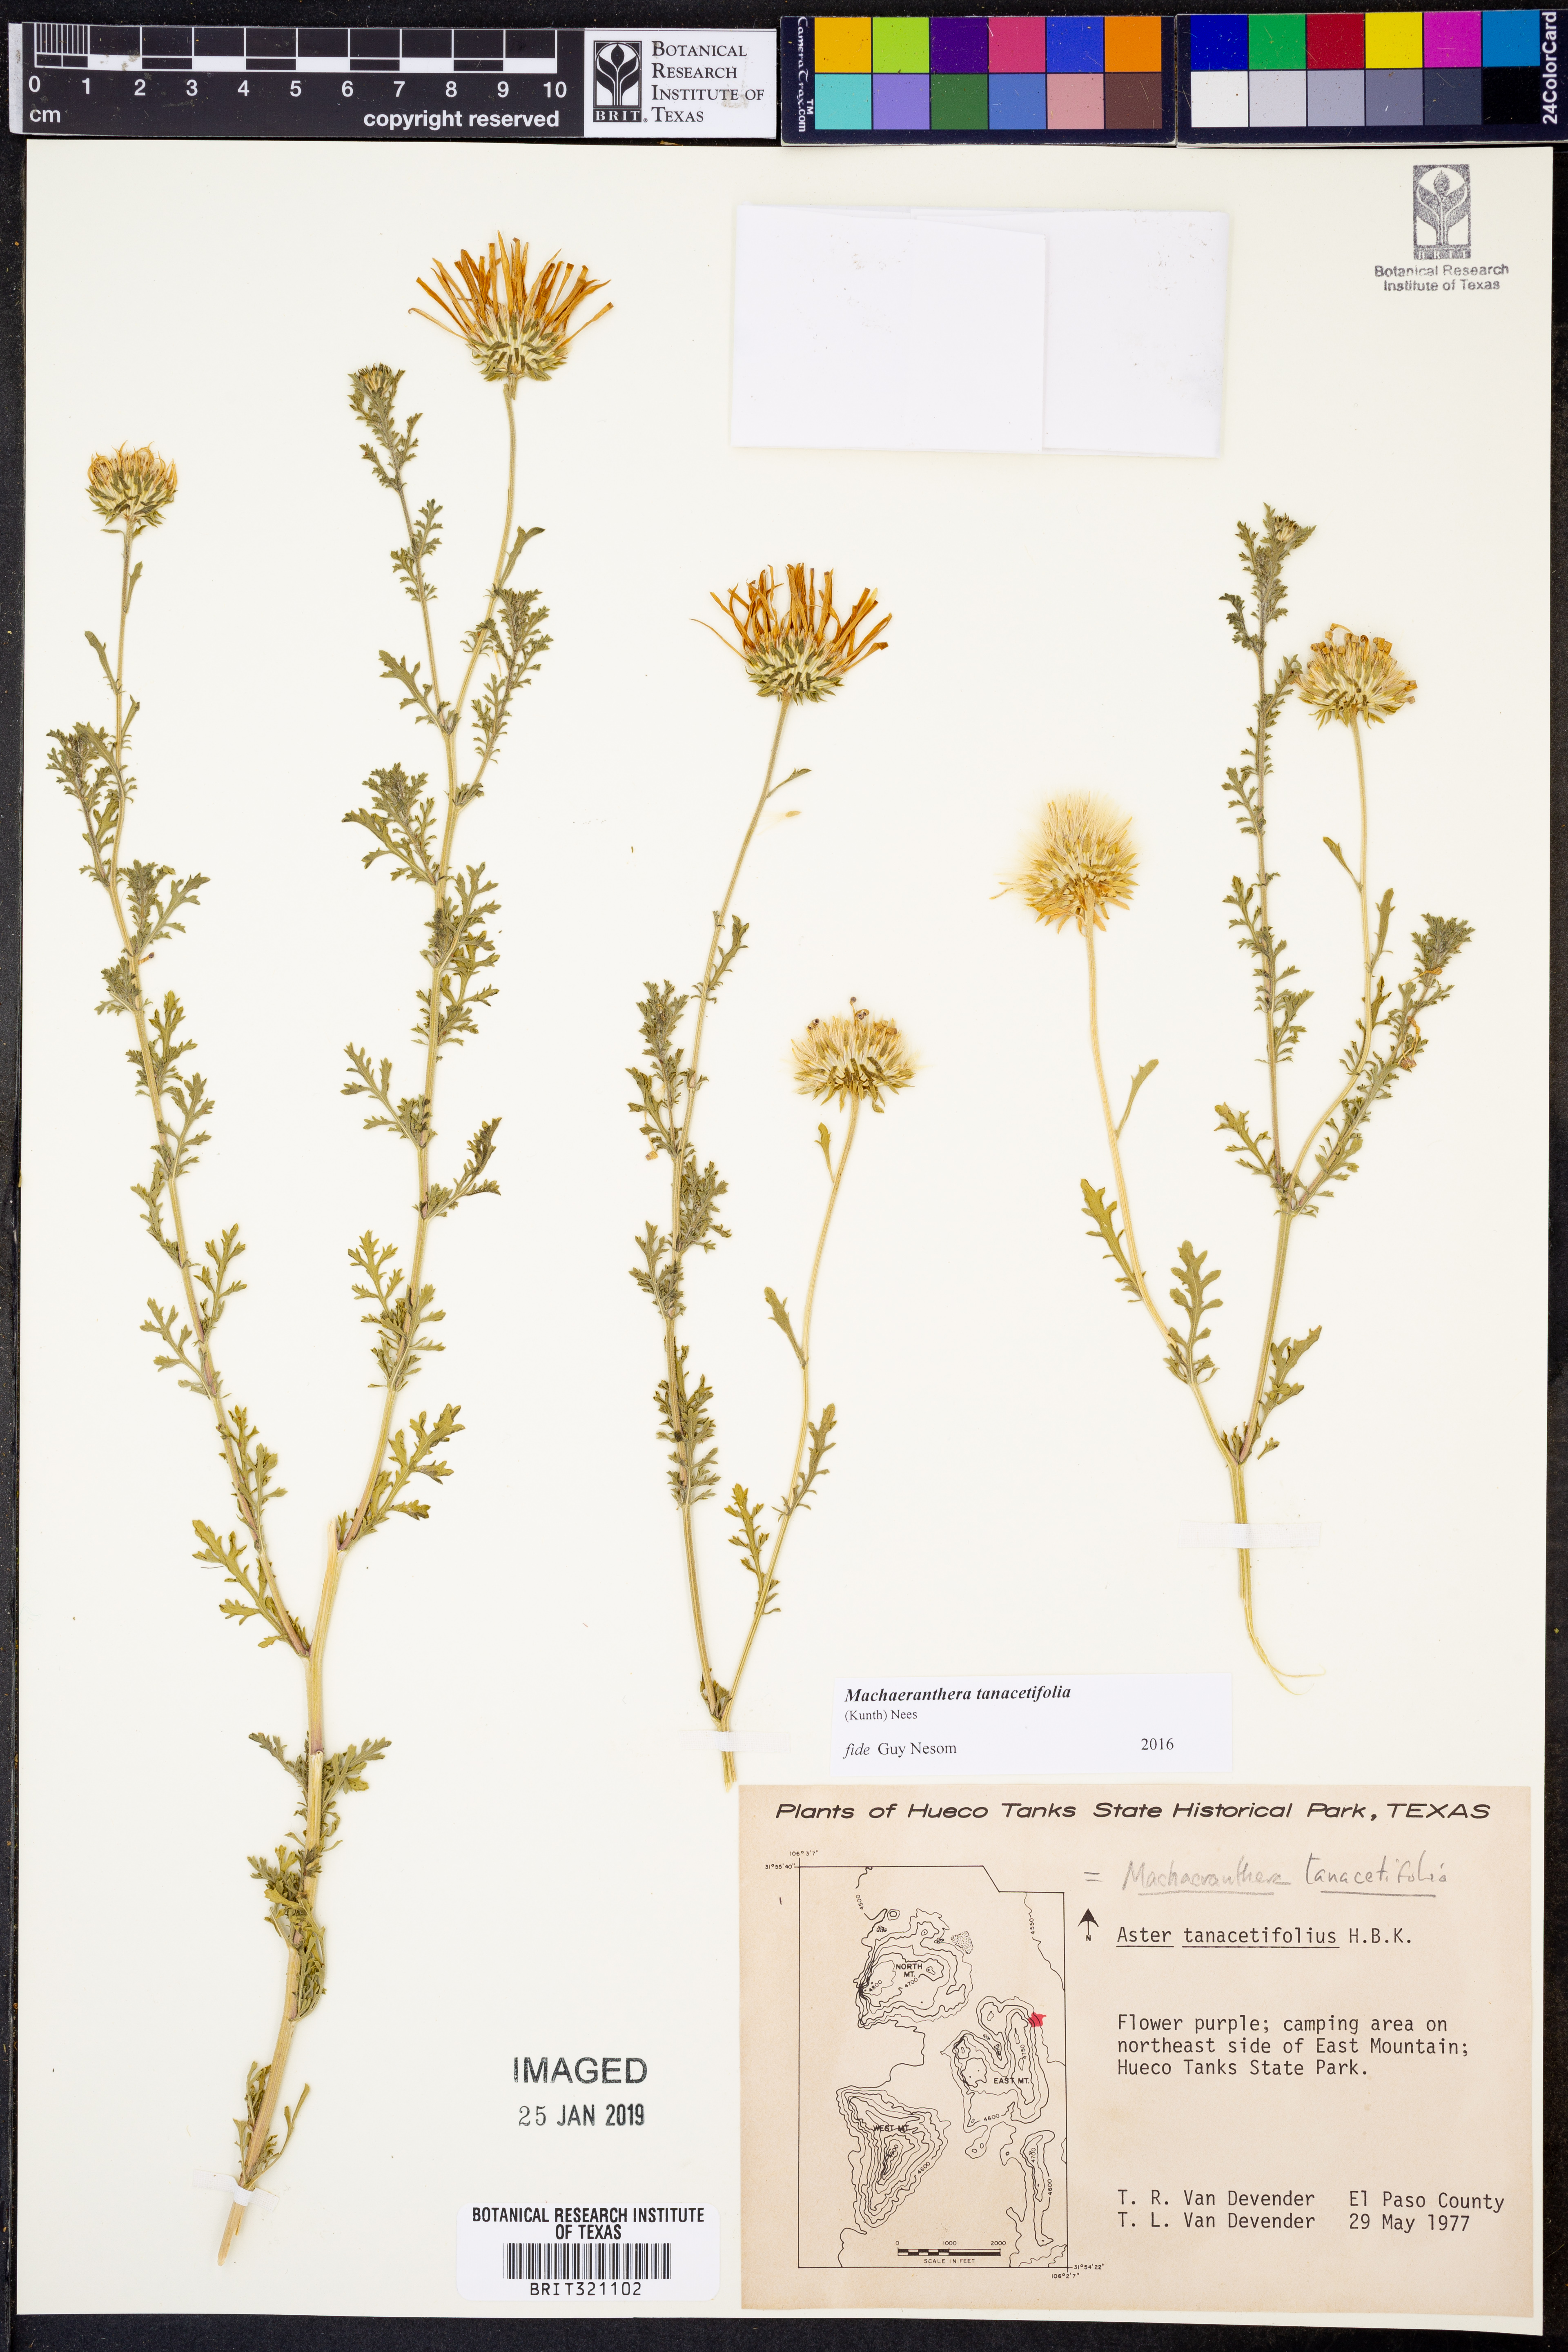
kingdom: Plantae
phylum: Tracheophyta
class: Magnoliopsida
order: Asterales
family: Asteraceae
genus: Machaeranthera
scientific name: Machaeranthera tanacetifolia
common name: Tansy-aster
